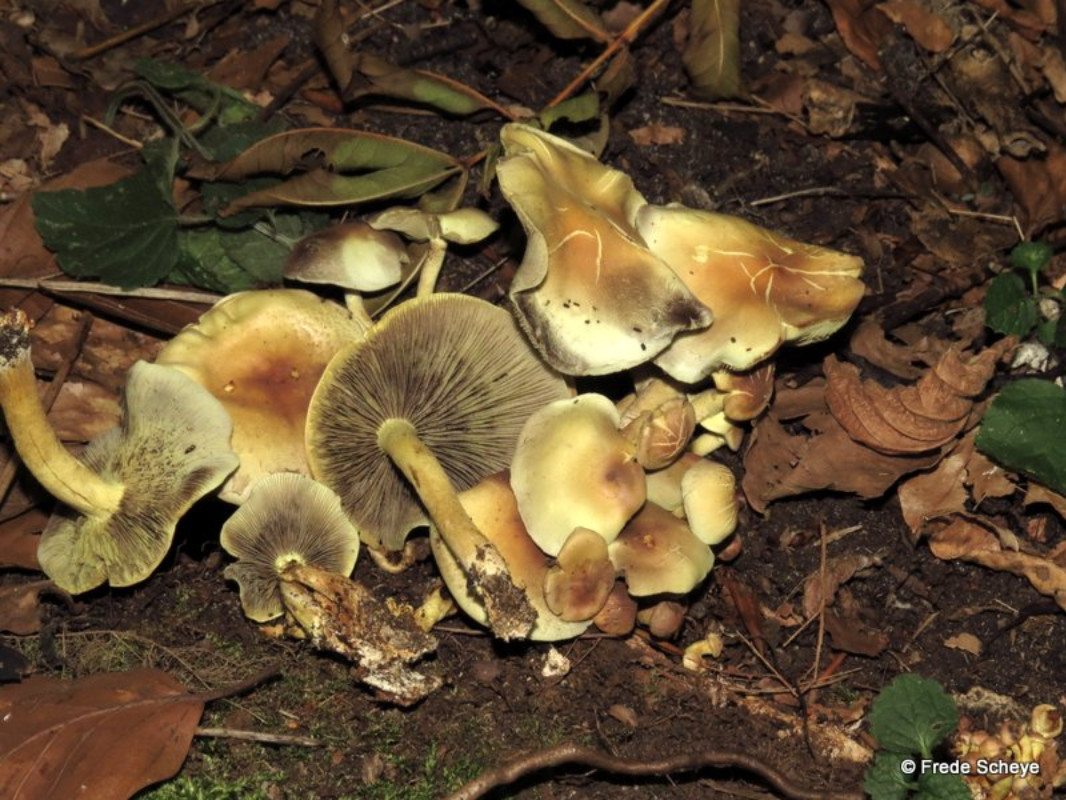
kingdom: Fungi
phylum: Basidiomycota
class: Agaricomycetes
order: Agaricales
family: Strophariaceae
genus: Hypholoma
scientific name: Hypholoma fasciculare
